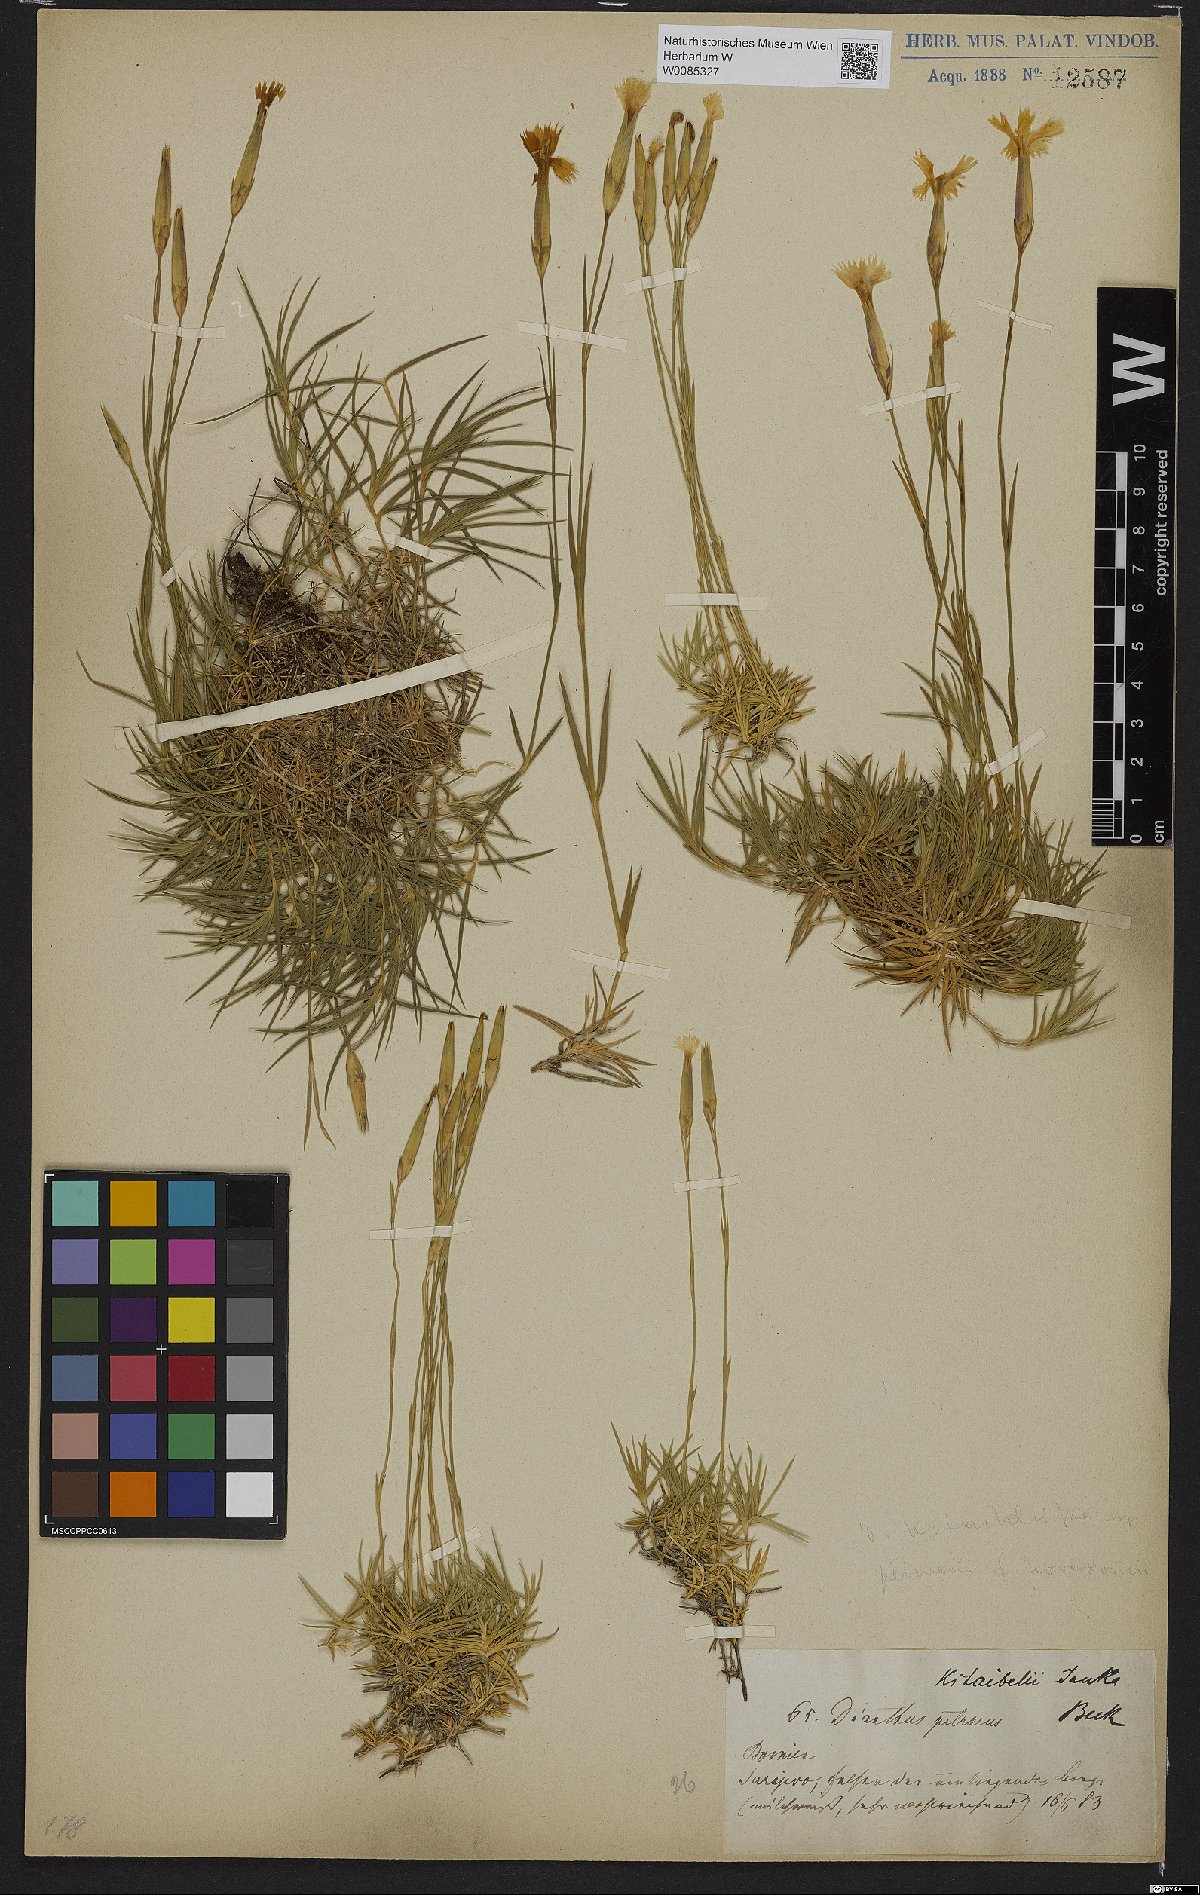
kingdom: Plantae
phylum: Tracheophyta
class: Magnoliopsida
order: Caryophyllales
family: Caryophyllaceae
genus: Dianthus
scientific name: Dianthus petraeus
